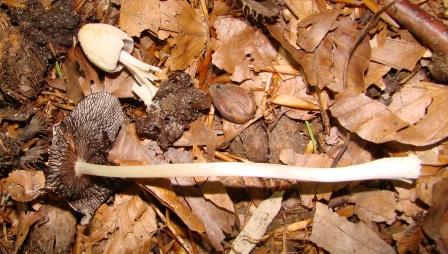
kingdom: Fungi
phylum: Basidiomycota
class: Agaricomycetes
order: Agaricales
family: Psathyrellaceae
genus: Coprinellus
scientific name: Coprinellus domesticus
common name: hus-blækhat
